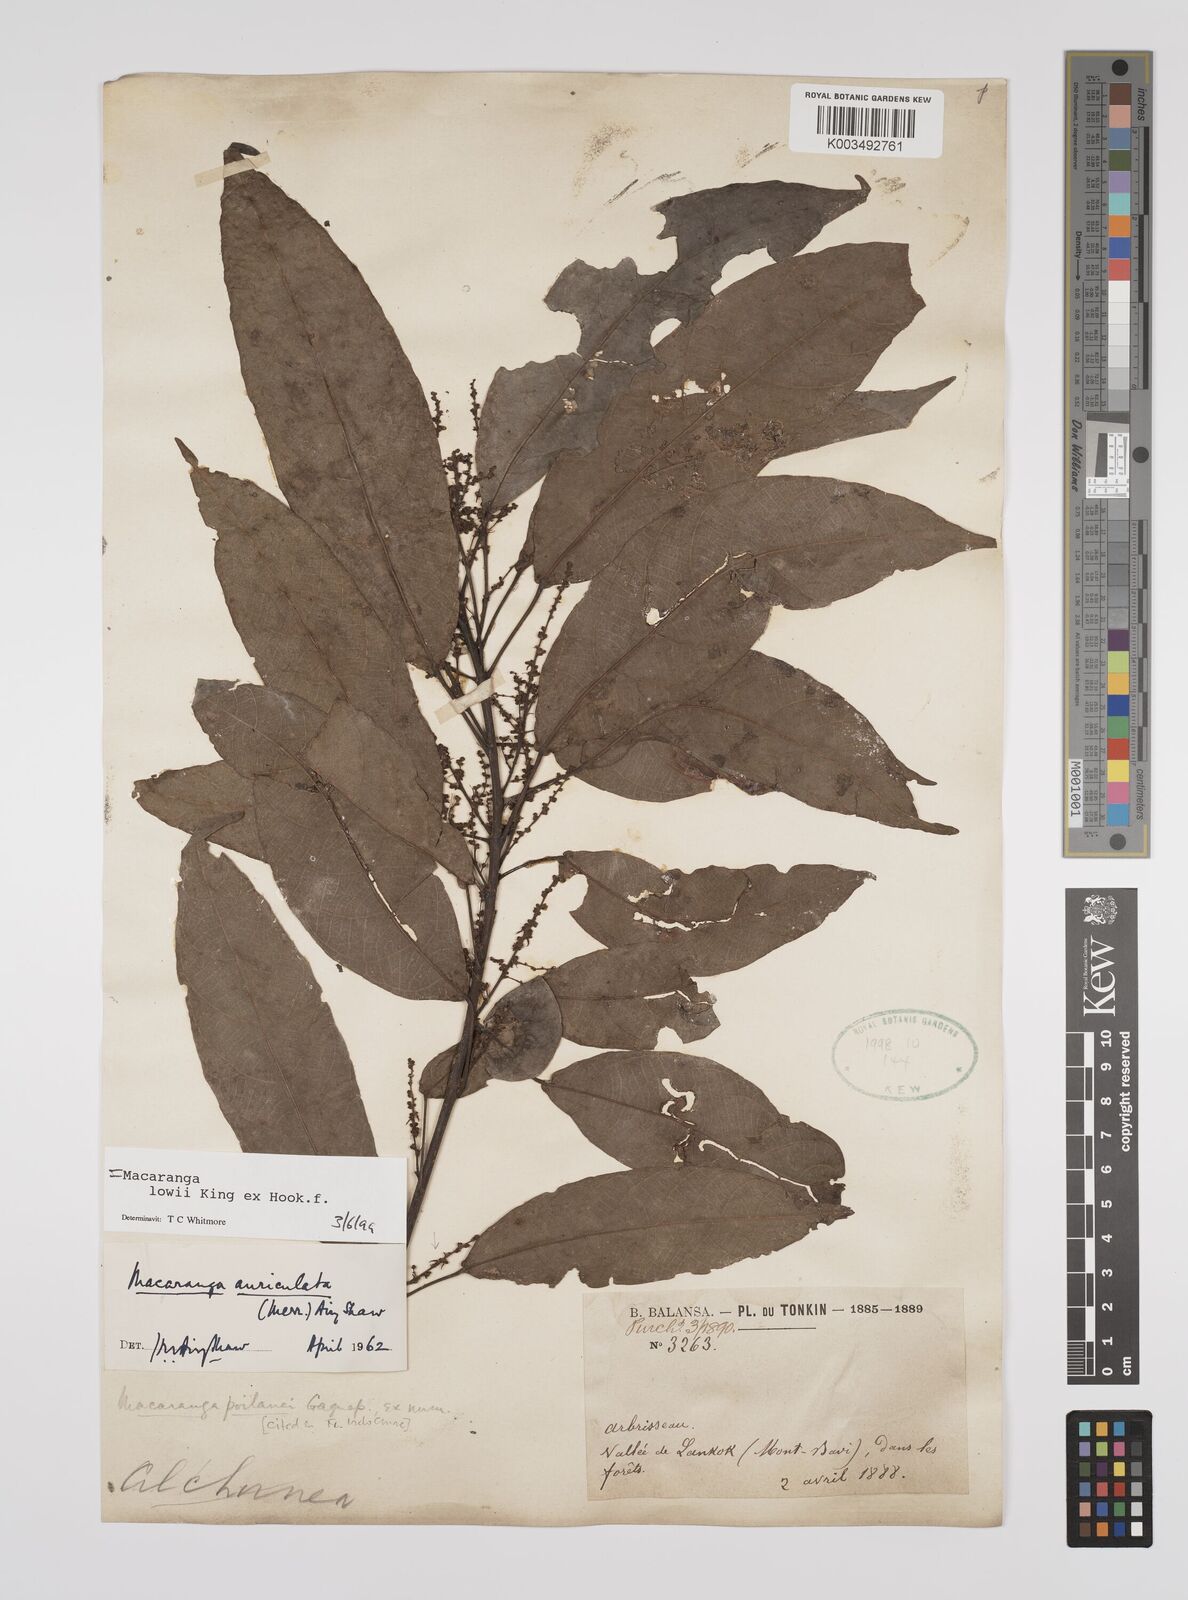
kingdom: Plantae
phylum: Tracheophyta
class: Magnoliopsida
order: Malpighiales
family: Euphorbiaceae
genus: Macaranga
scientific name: Macaranga lowii
